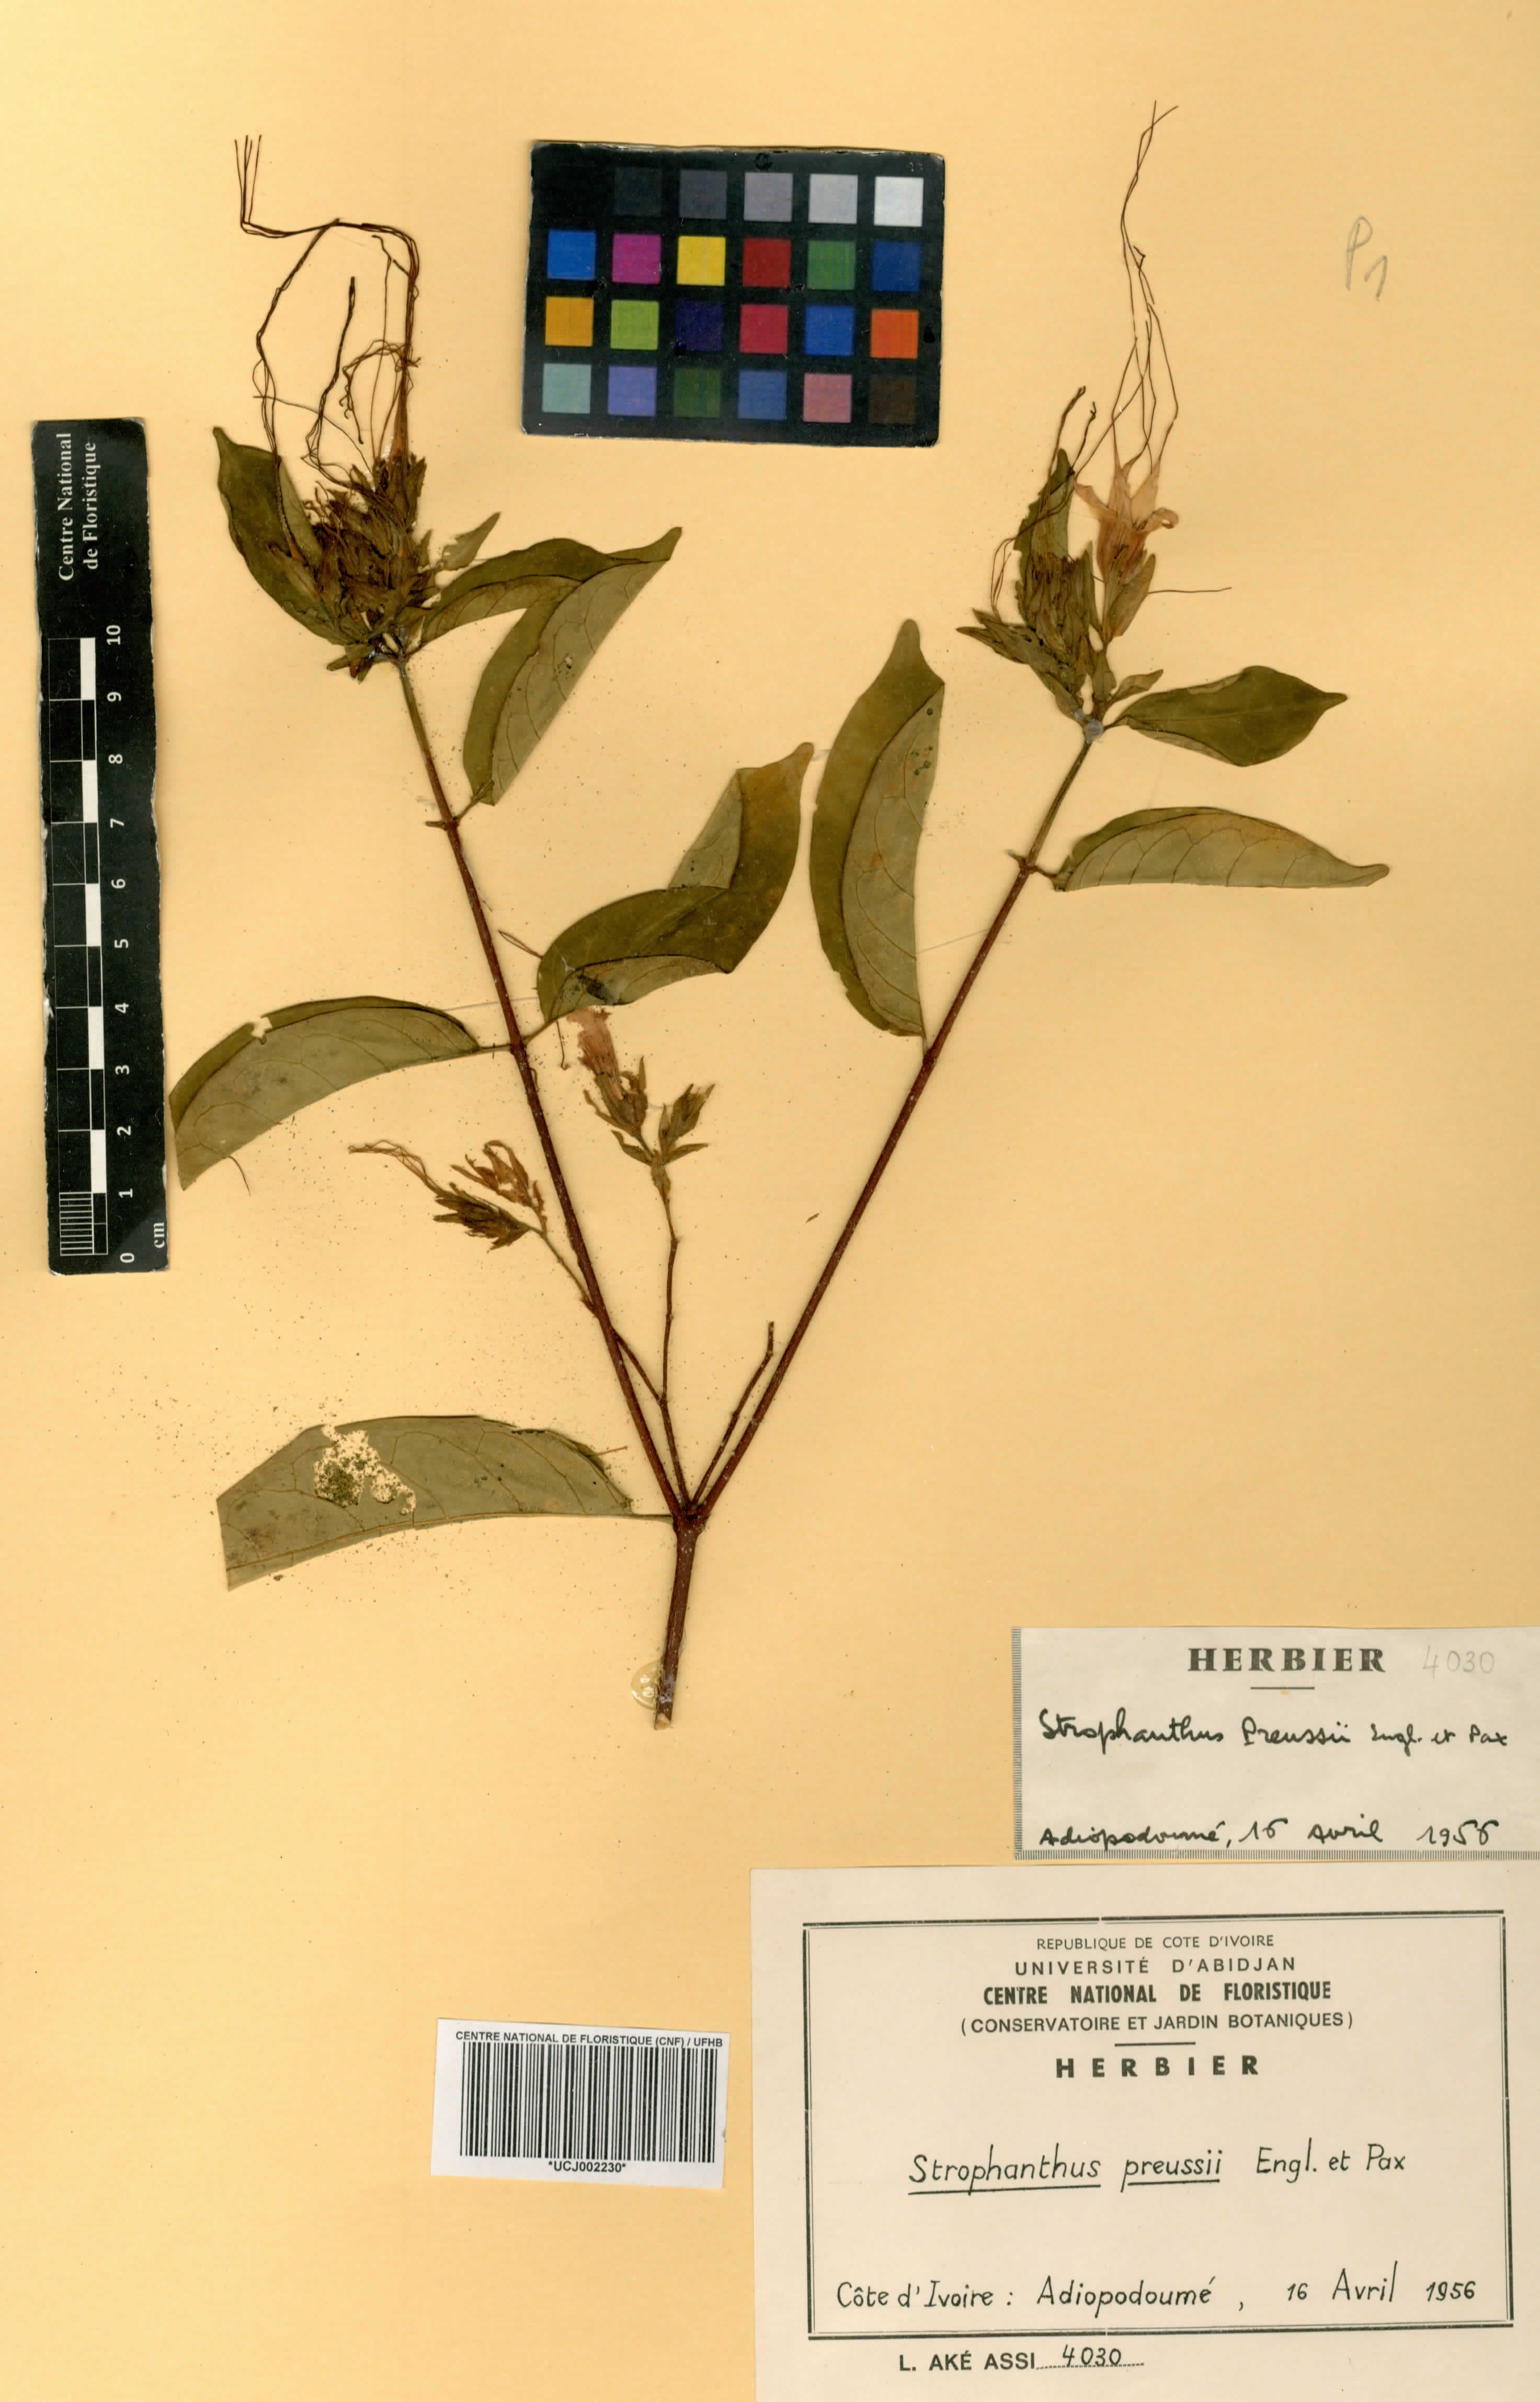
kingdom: Plantae
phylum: Tracheophyta
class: Magnoliopsida
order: Gentianales
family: Apocynaceae
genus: Strophanthus
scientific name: Strophanthus preussii
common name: Medisa-flower
